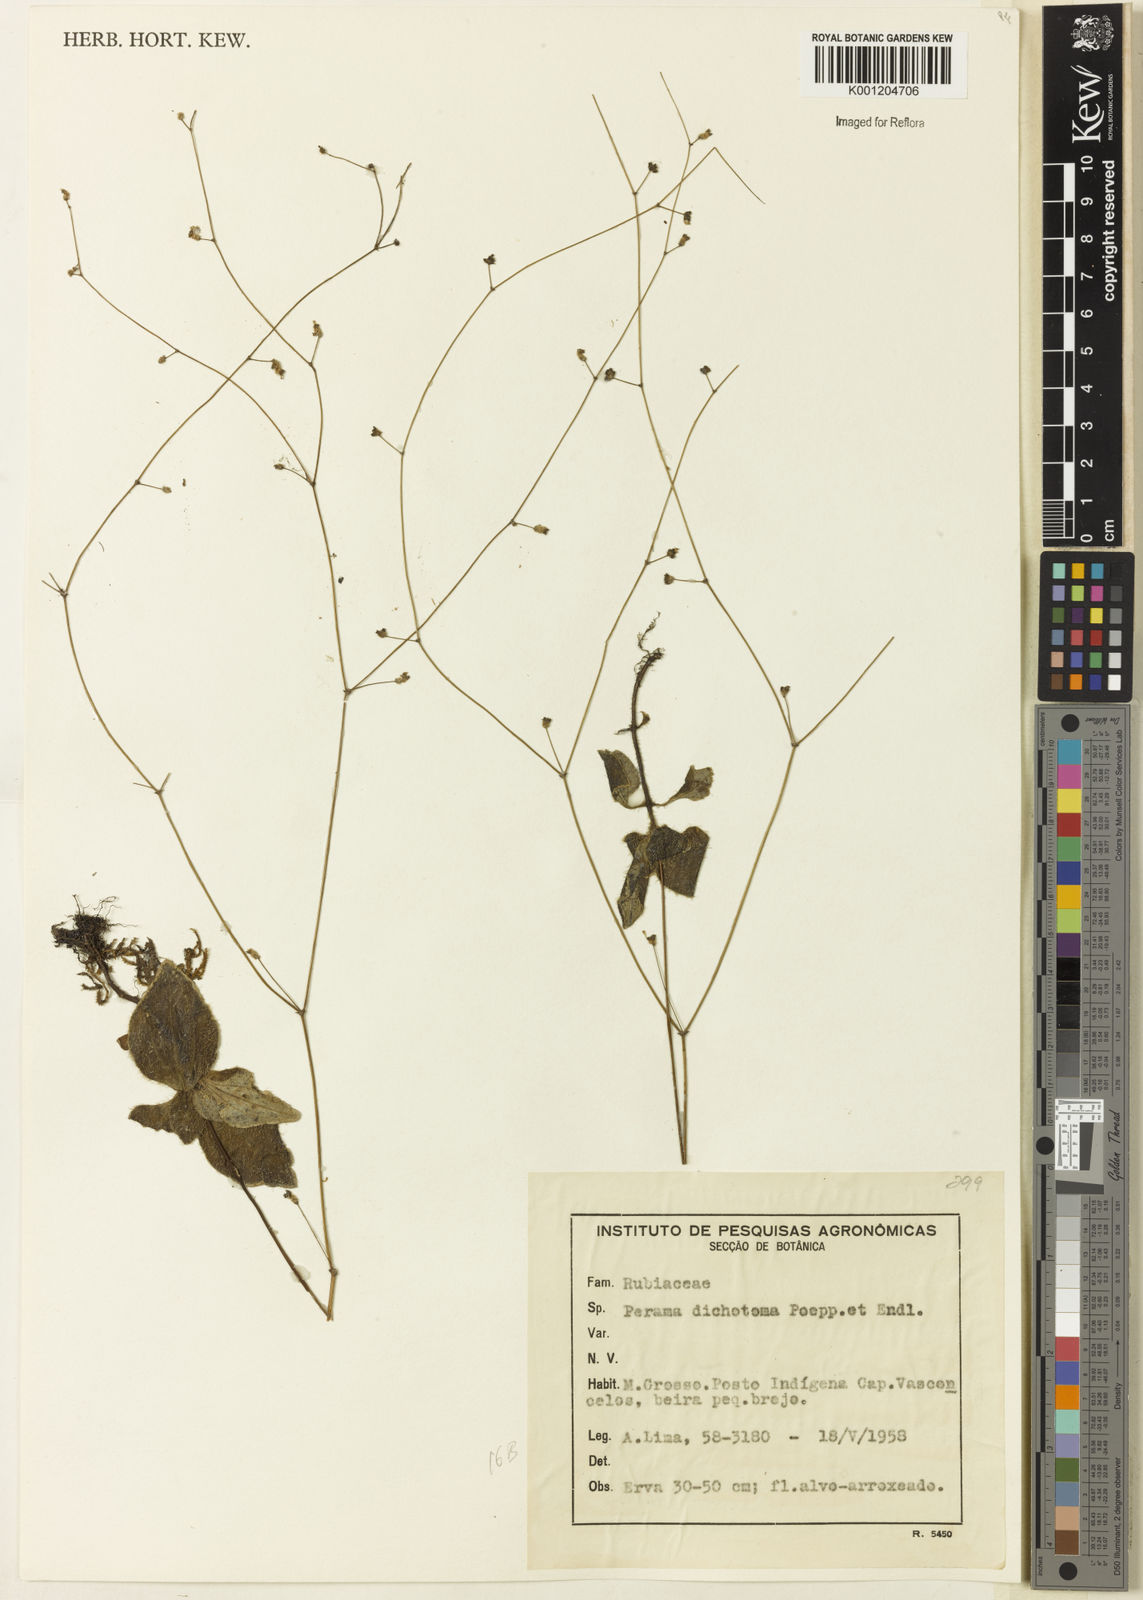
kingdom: Plantae
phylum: Tracheophyta
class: Magnoliopsida
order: Gentianales
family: Rubiaceae
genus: Perama
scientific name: Perama dichotoma
